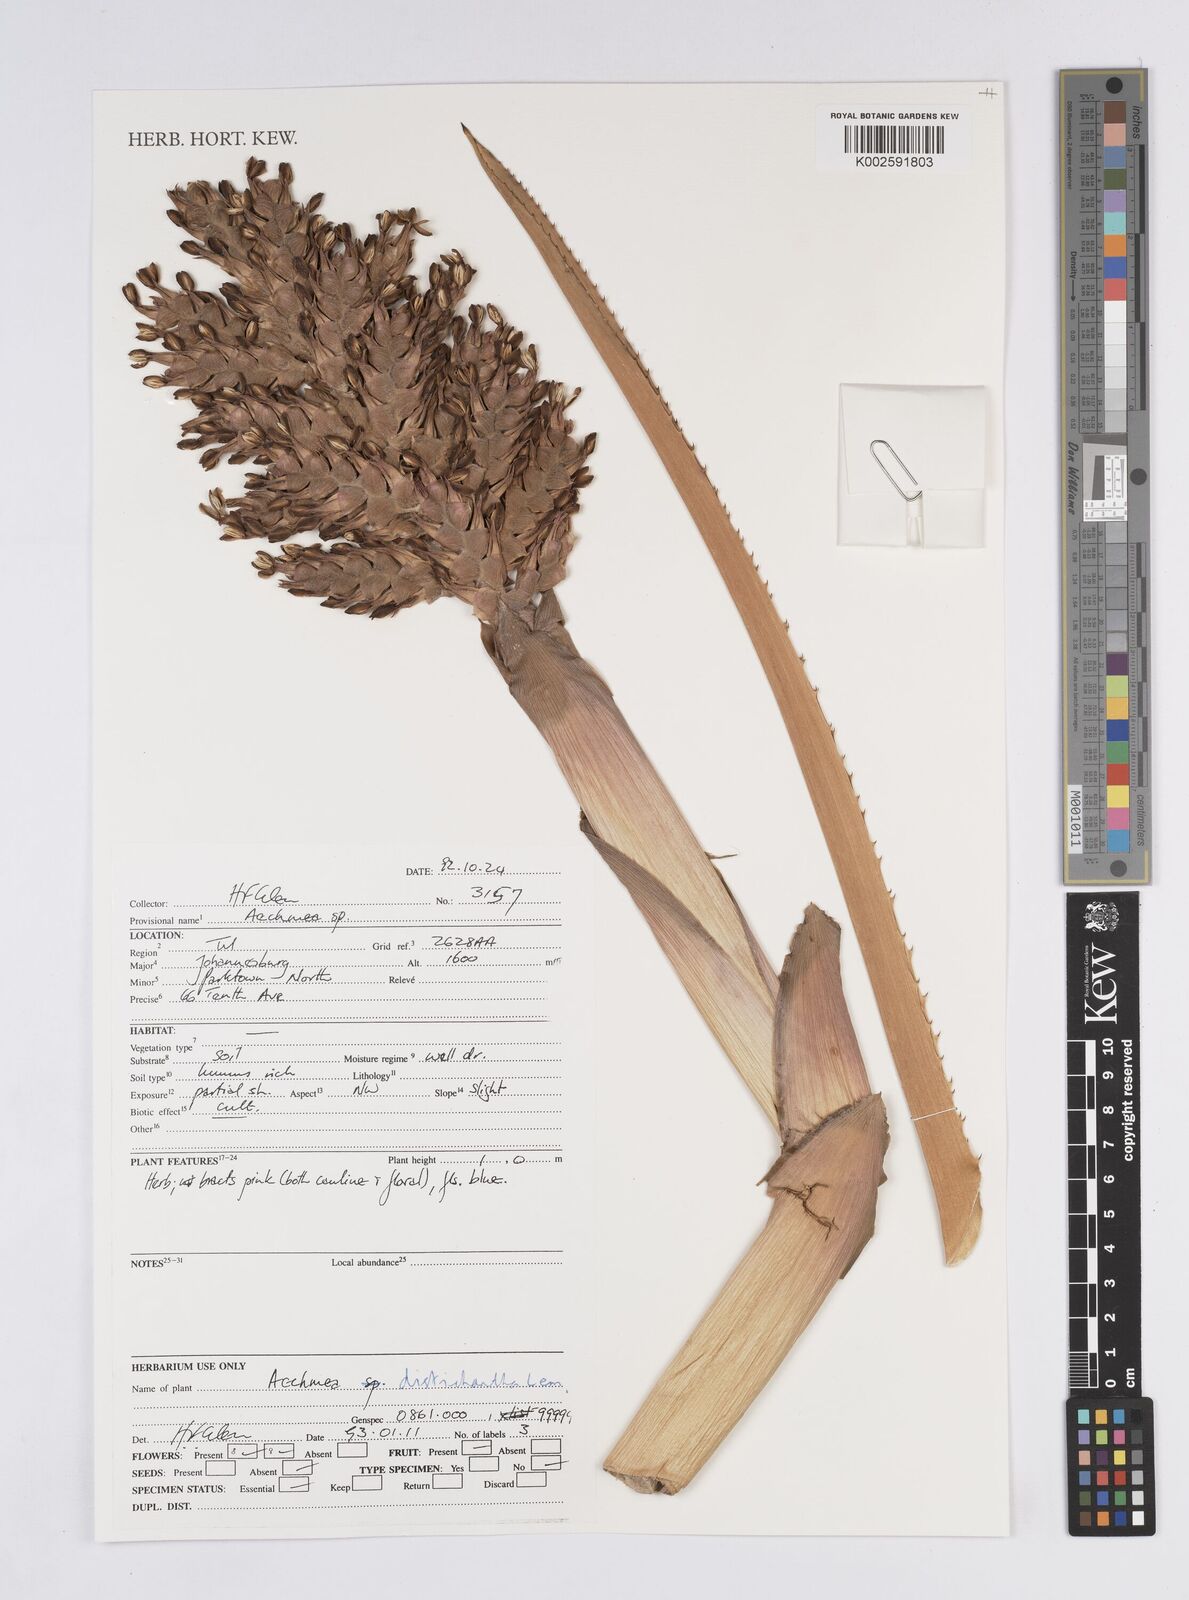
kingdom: Plantae
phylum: Tracheophyta
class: Liliopsida
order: Poales
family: Bromeliaceae
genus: Aechmea
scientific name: Aechmea distichantha
